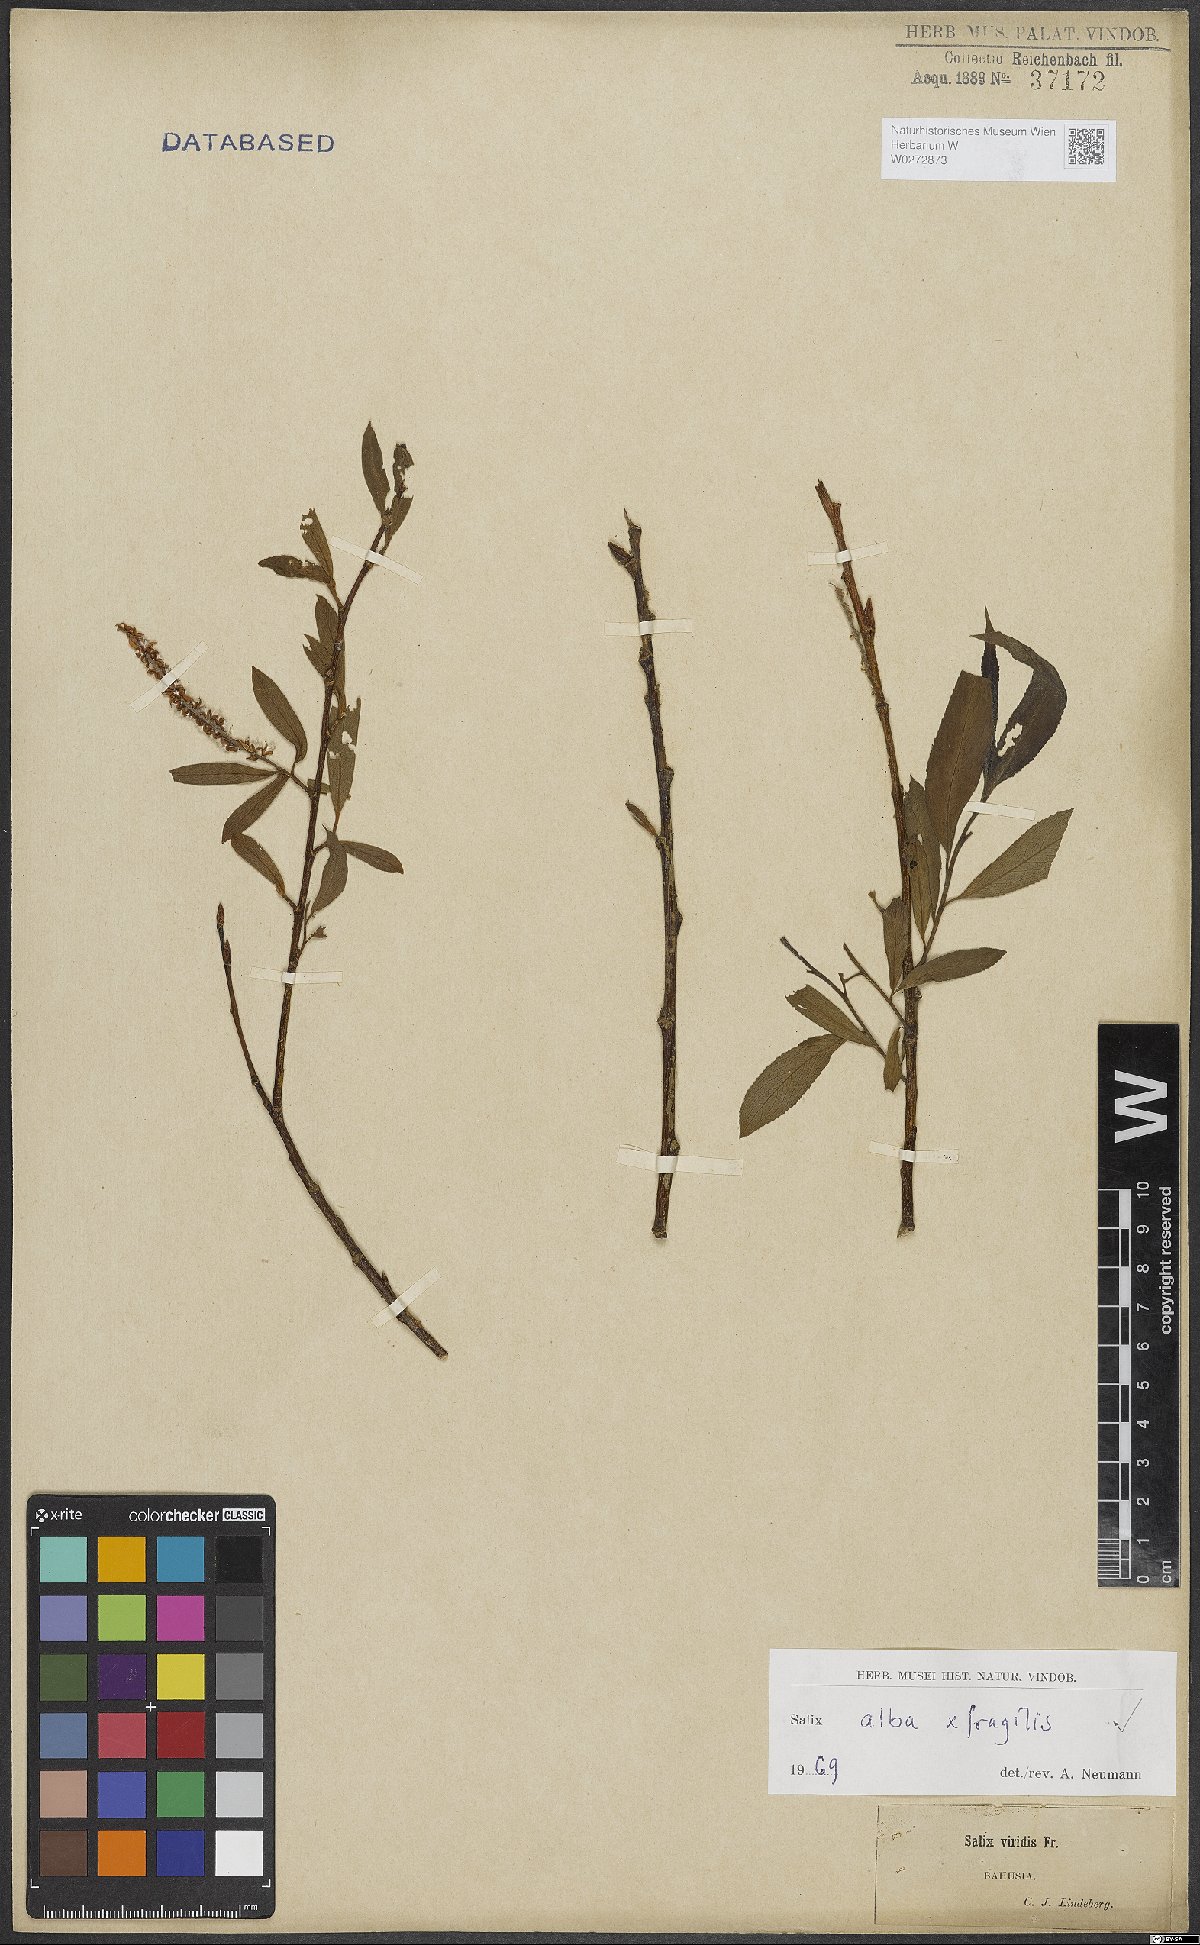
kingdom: Plantae
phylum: Tracheophyta
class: Magnoliopsida
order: Malpighiales
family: Salicaceae
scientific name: Salicaceae
